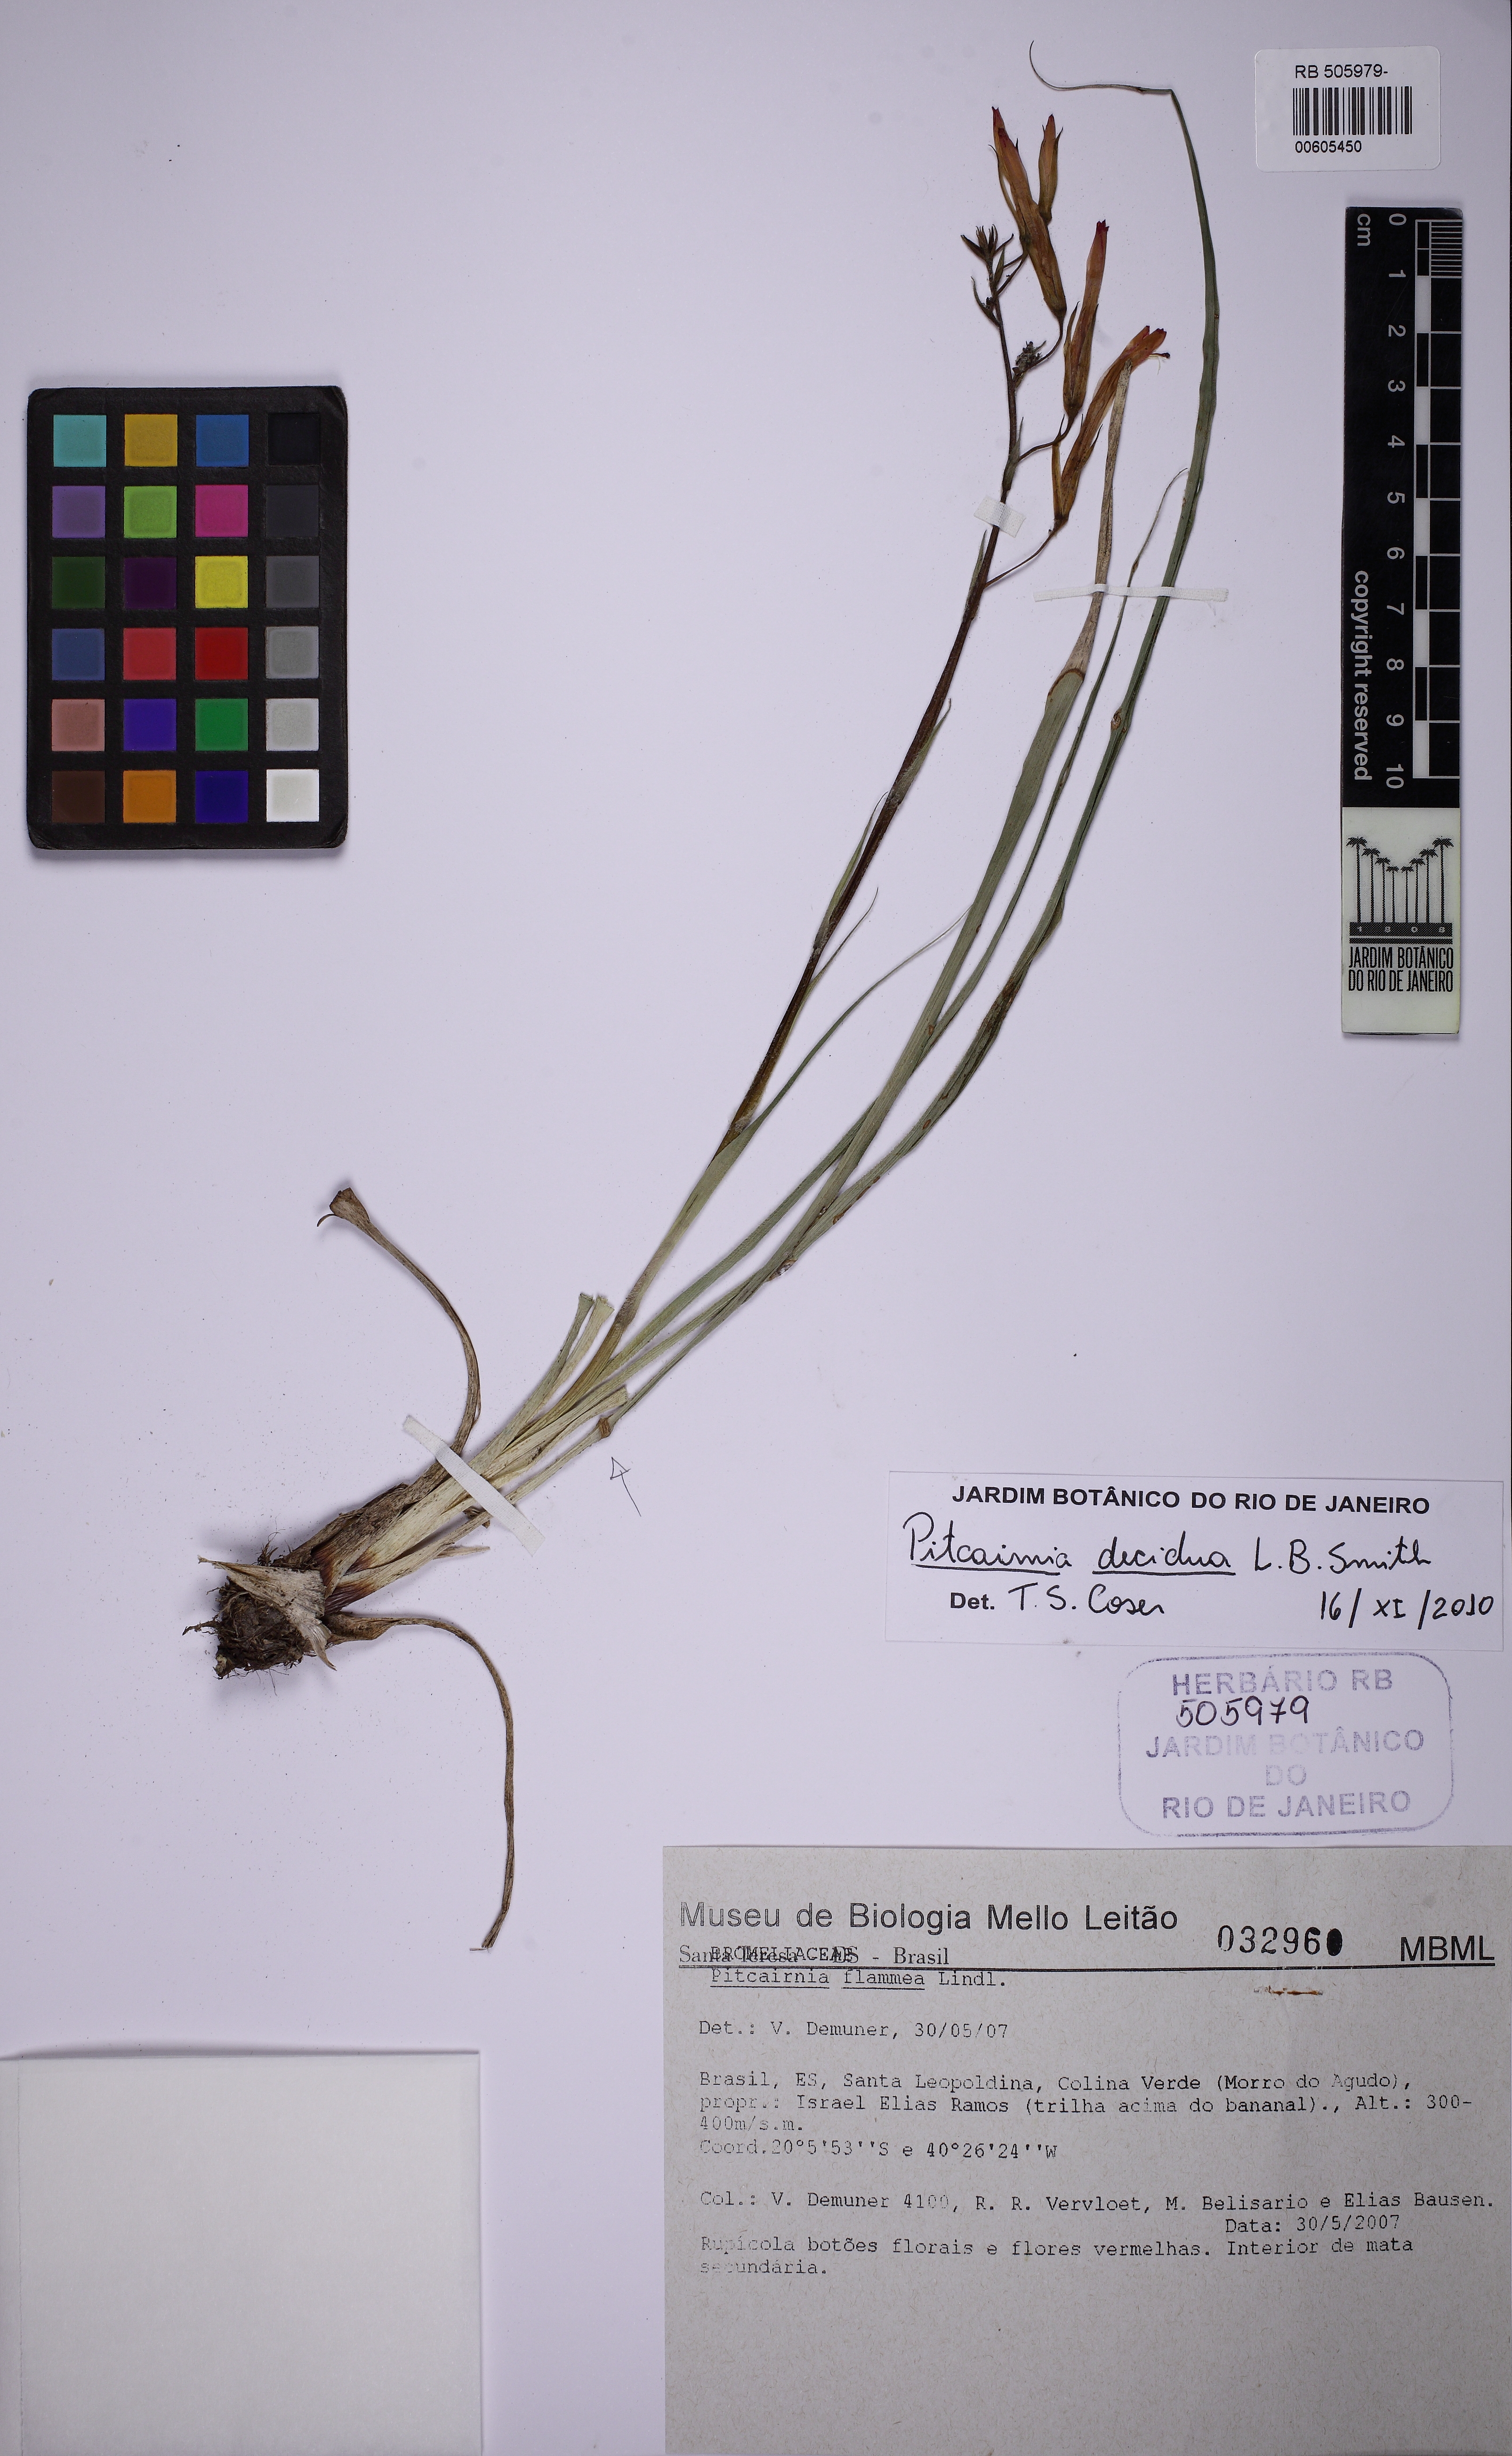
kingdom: Plantae
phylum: Tracheophyta
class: Liliopsida
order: Poales
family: Bromeliaceae
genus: Pitcairnia
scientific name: Pitcairnia decidua
